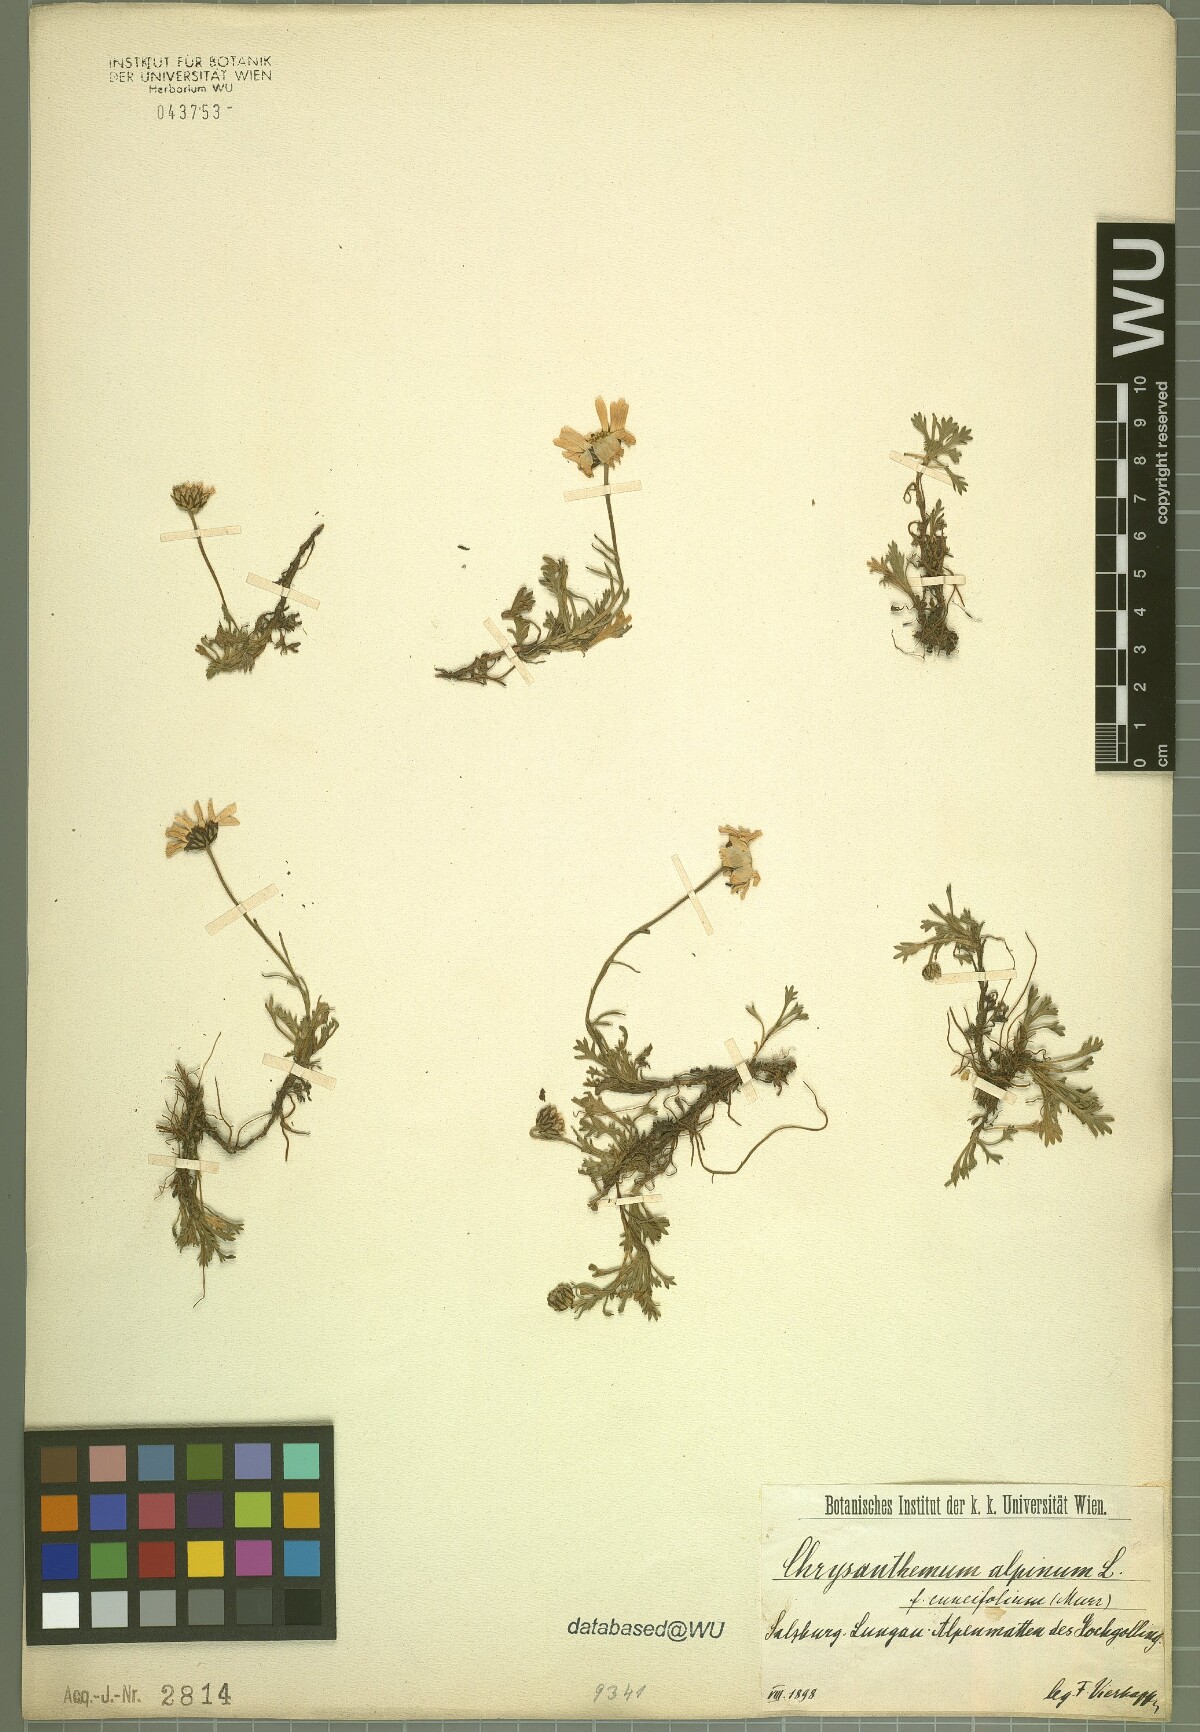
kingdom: Plantae
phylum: Tracheophyta
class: Magnoliopsida
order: Asterales
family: Asteraceae
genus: Leucanthemopsis
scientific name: Leucanthemopsis alpina
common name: Alpine moon daisy
